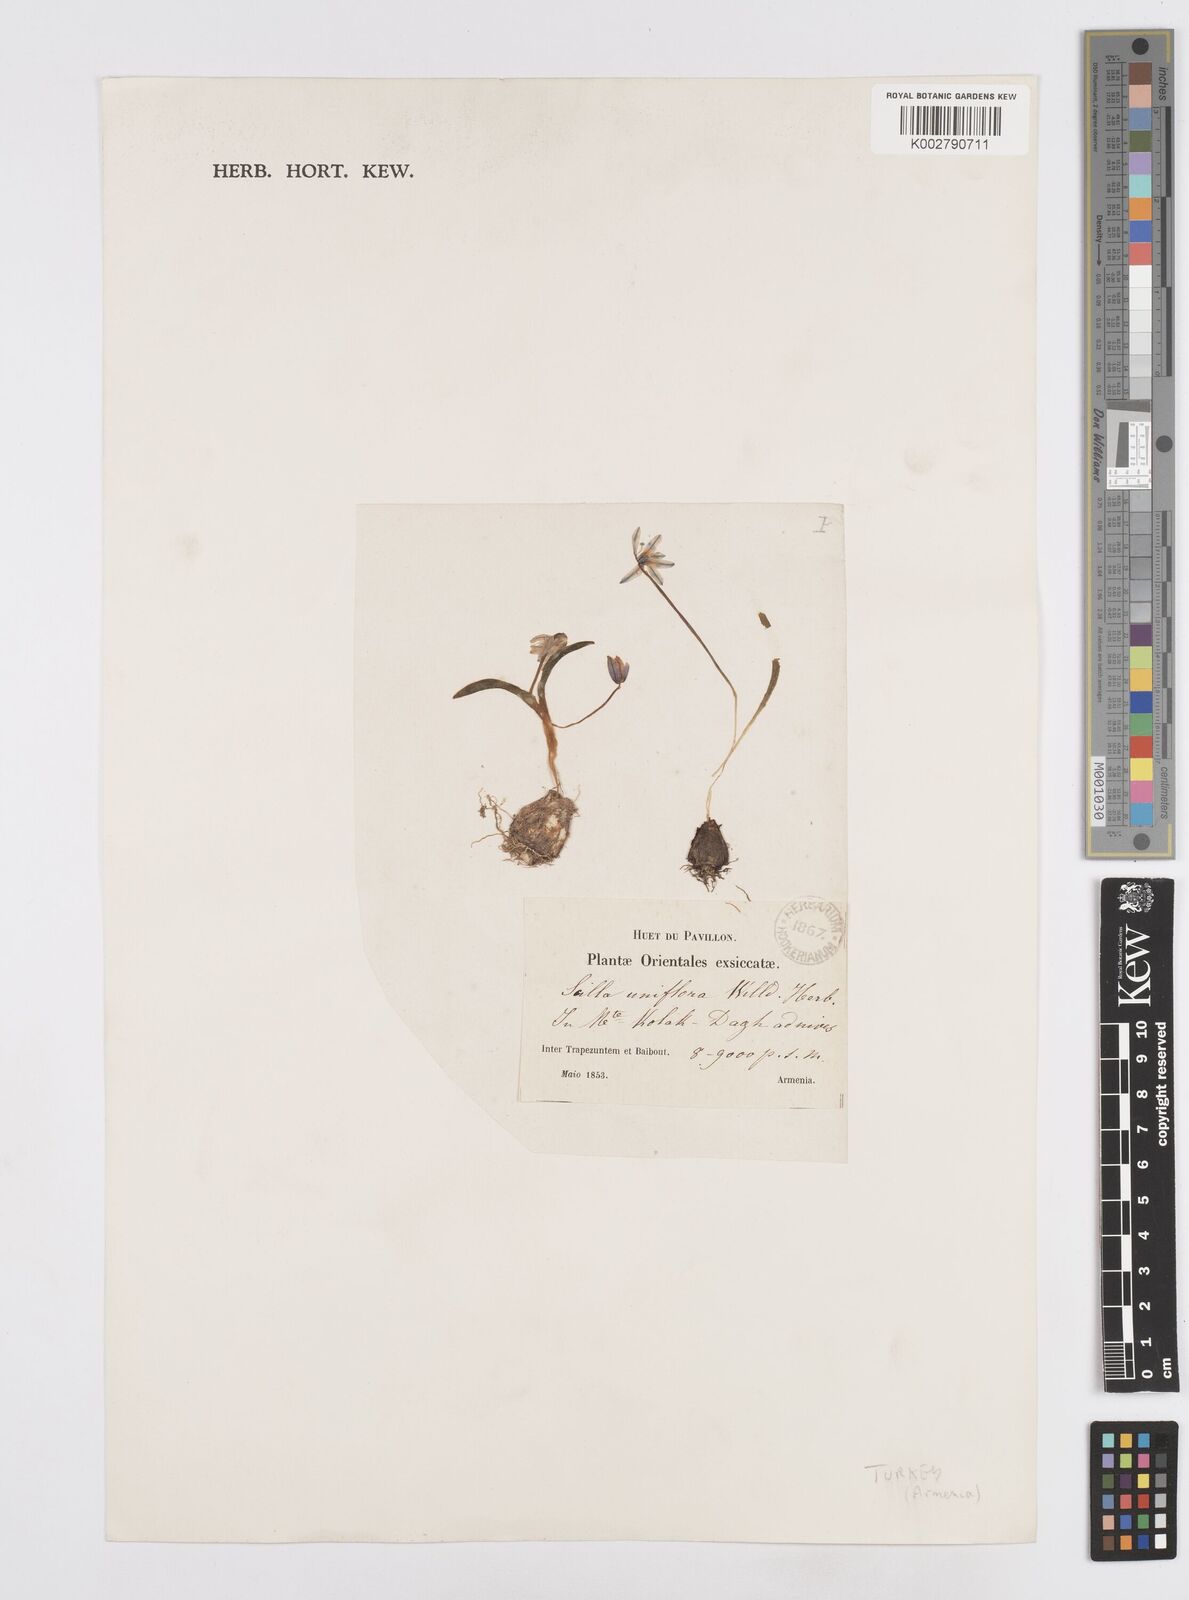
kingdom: Plantae
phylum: Tracheophyta
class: Liliopsida
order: Asparagales
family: Asparagaceae
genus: Scilla
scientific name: Scilla siberica
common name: Siberian squill
